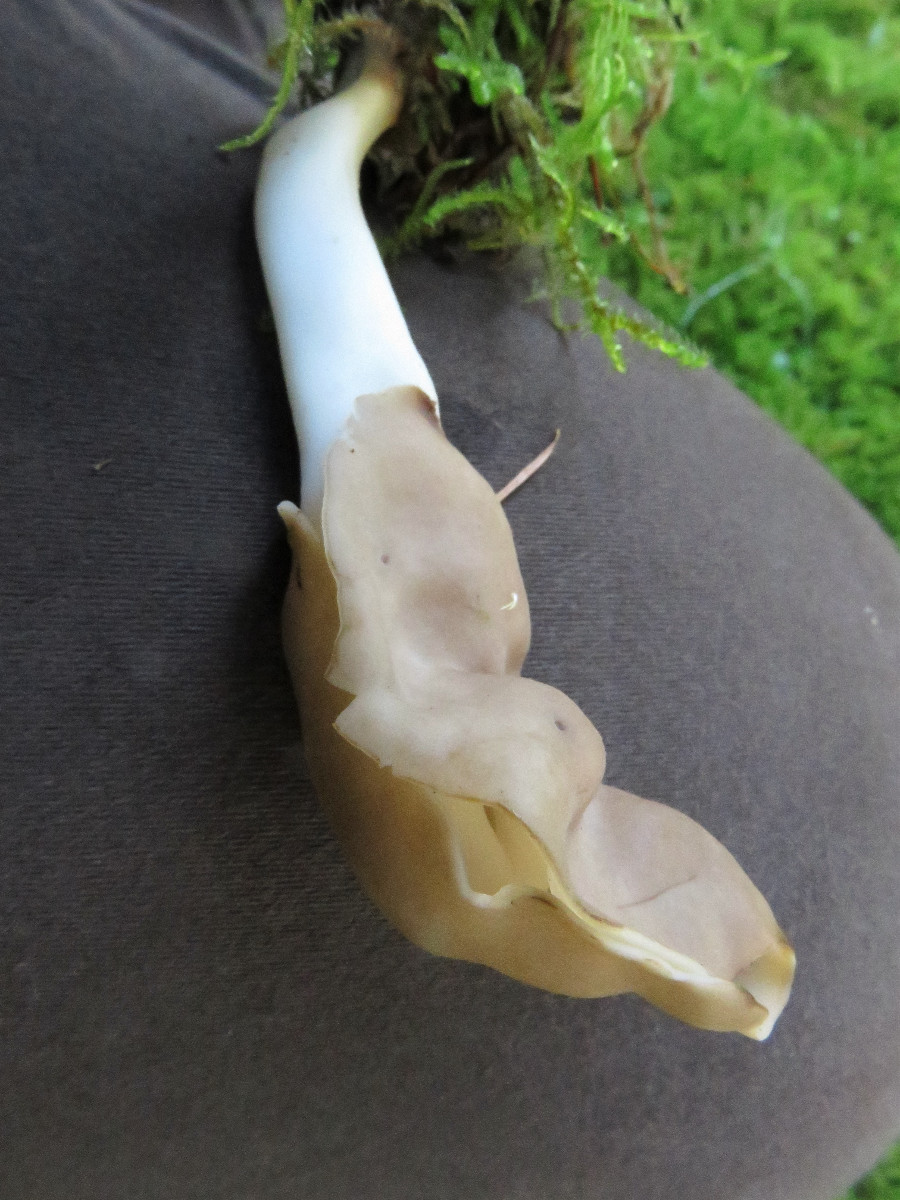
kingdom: Fungi
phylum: Ascomycota
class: Pezizomycetes
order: Pezizales
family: Helvellaceae
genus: Helvella
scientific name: Helvella elastica
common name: elastik-foldhat
